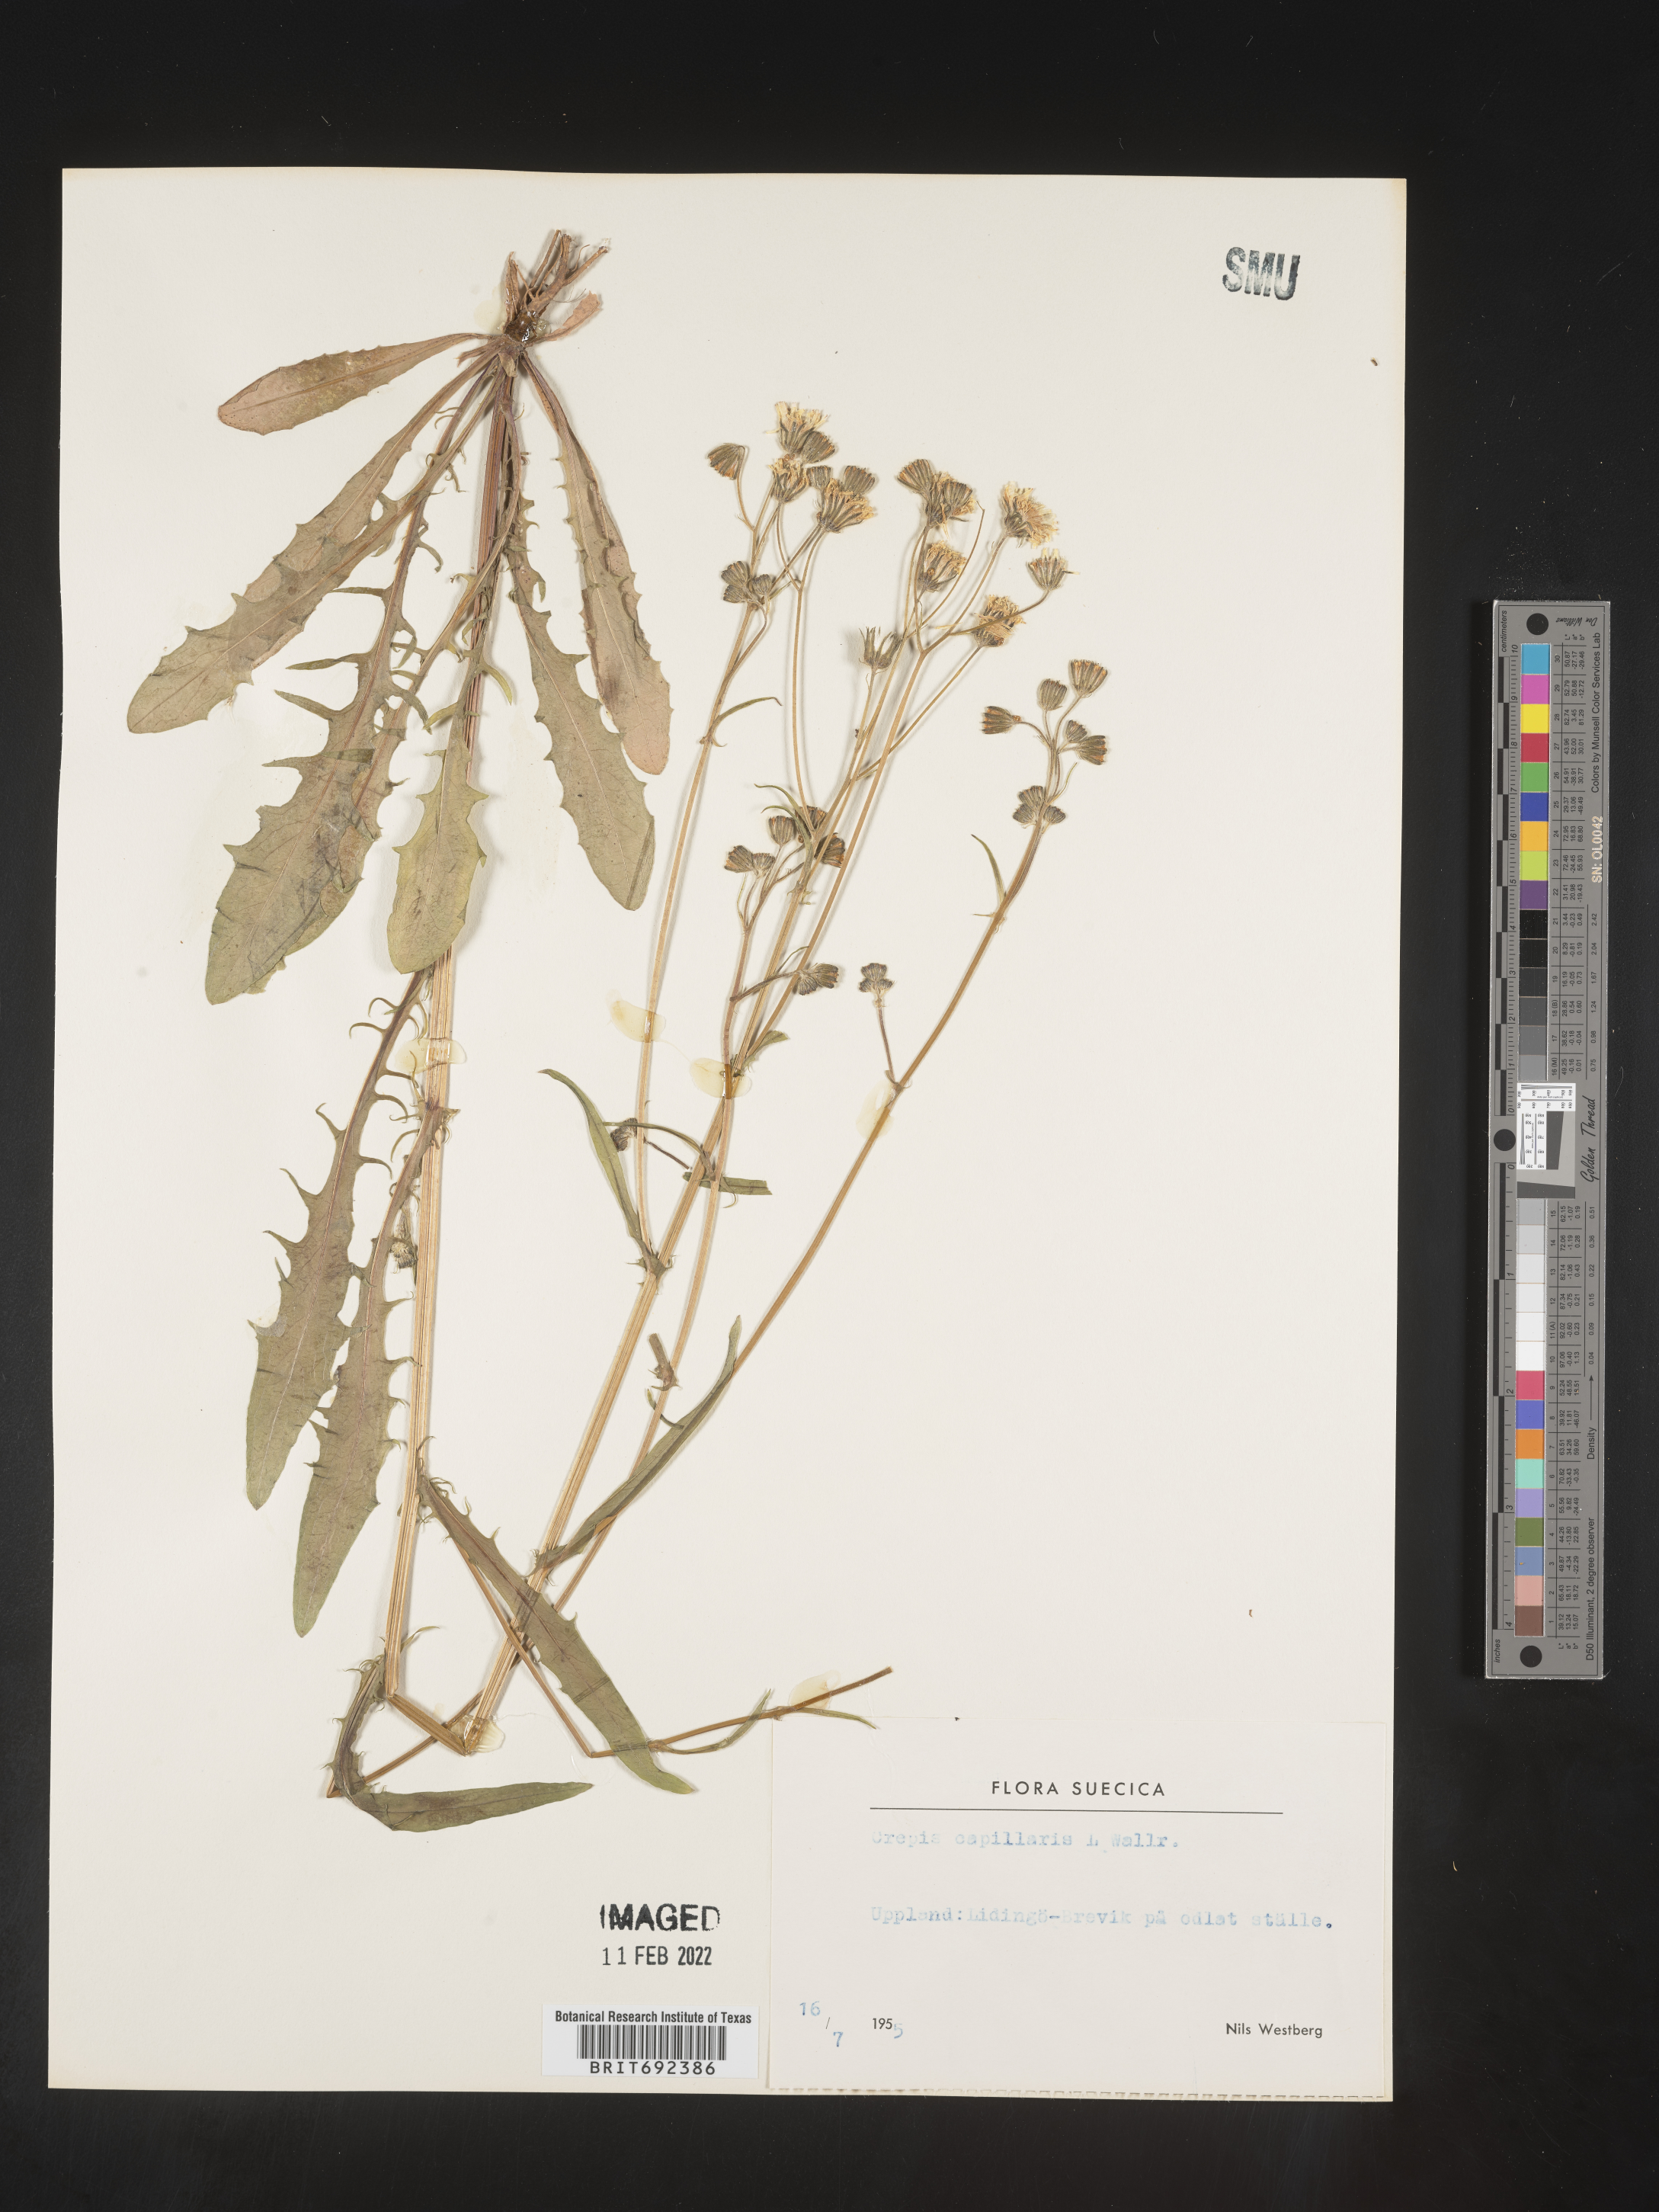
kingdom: Plantae
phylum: Tracheophyta
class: Magnoliopsida
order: Asterales
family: Asteraceae
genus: Crepis
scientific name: Crepis
